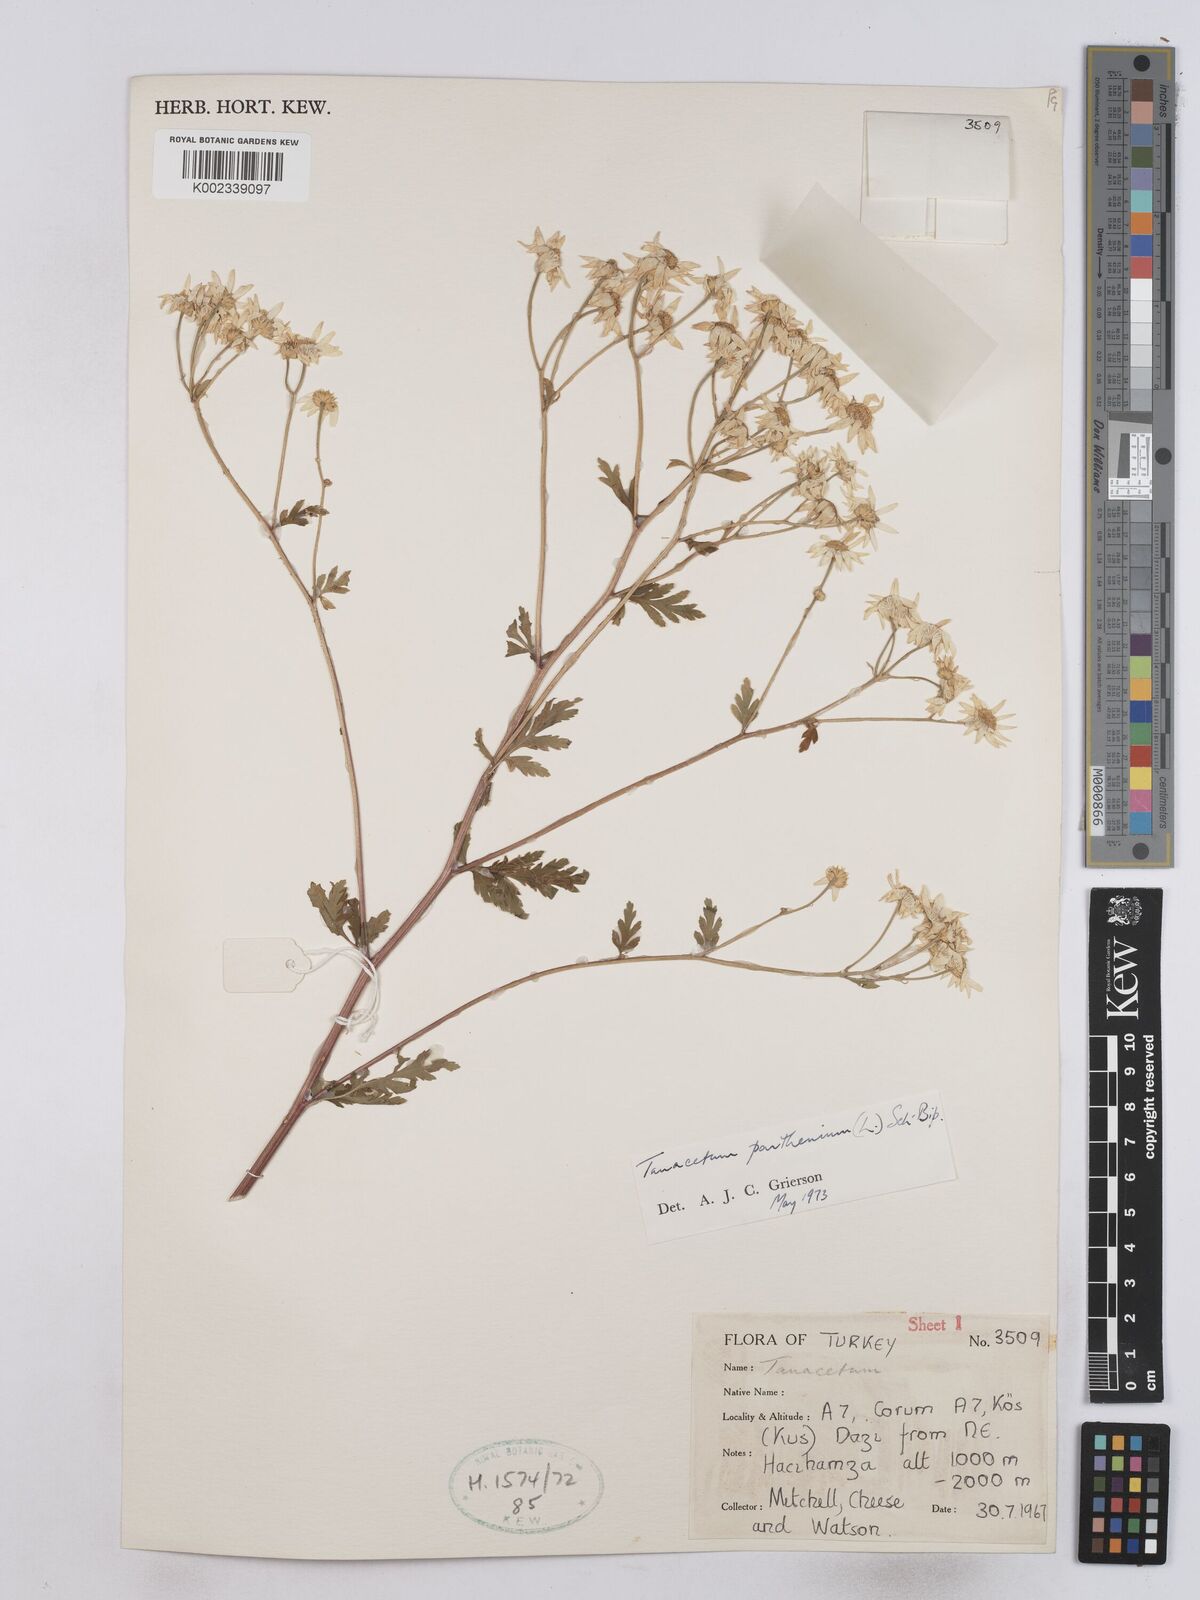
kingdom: Plantae
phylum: Tracheophyta
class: Magnoliopsida
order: Asterales
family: Asteraceae
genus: Tanacetum
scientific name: Tanacetum parthenium
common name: Feverfew
